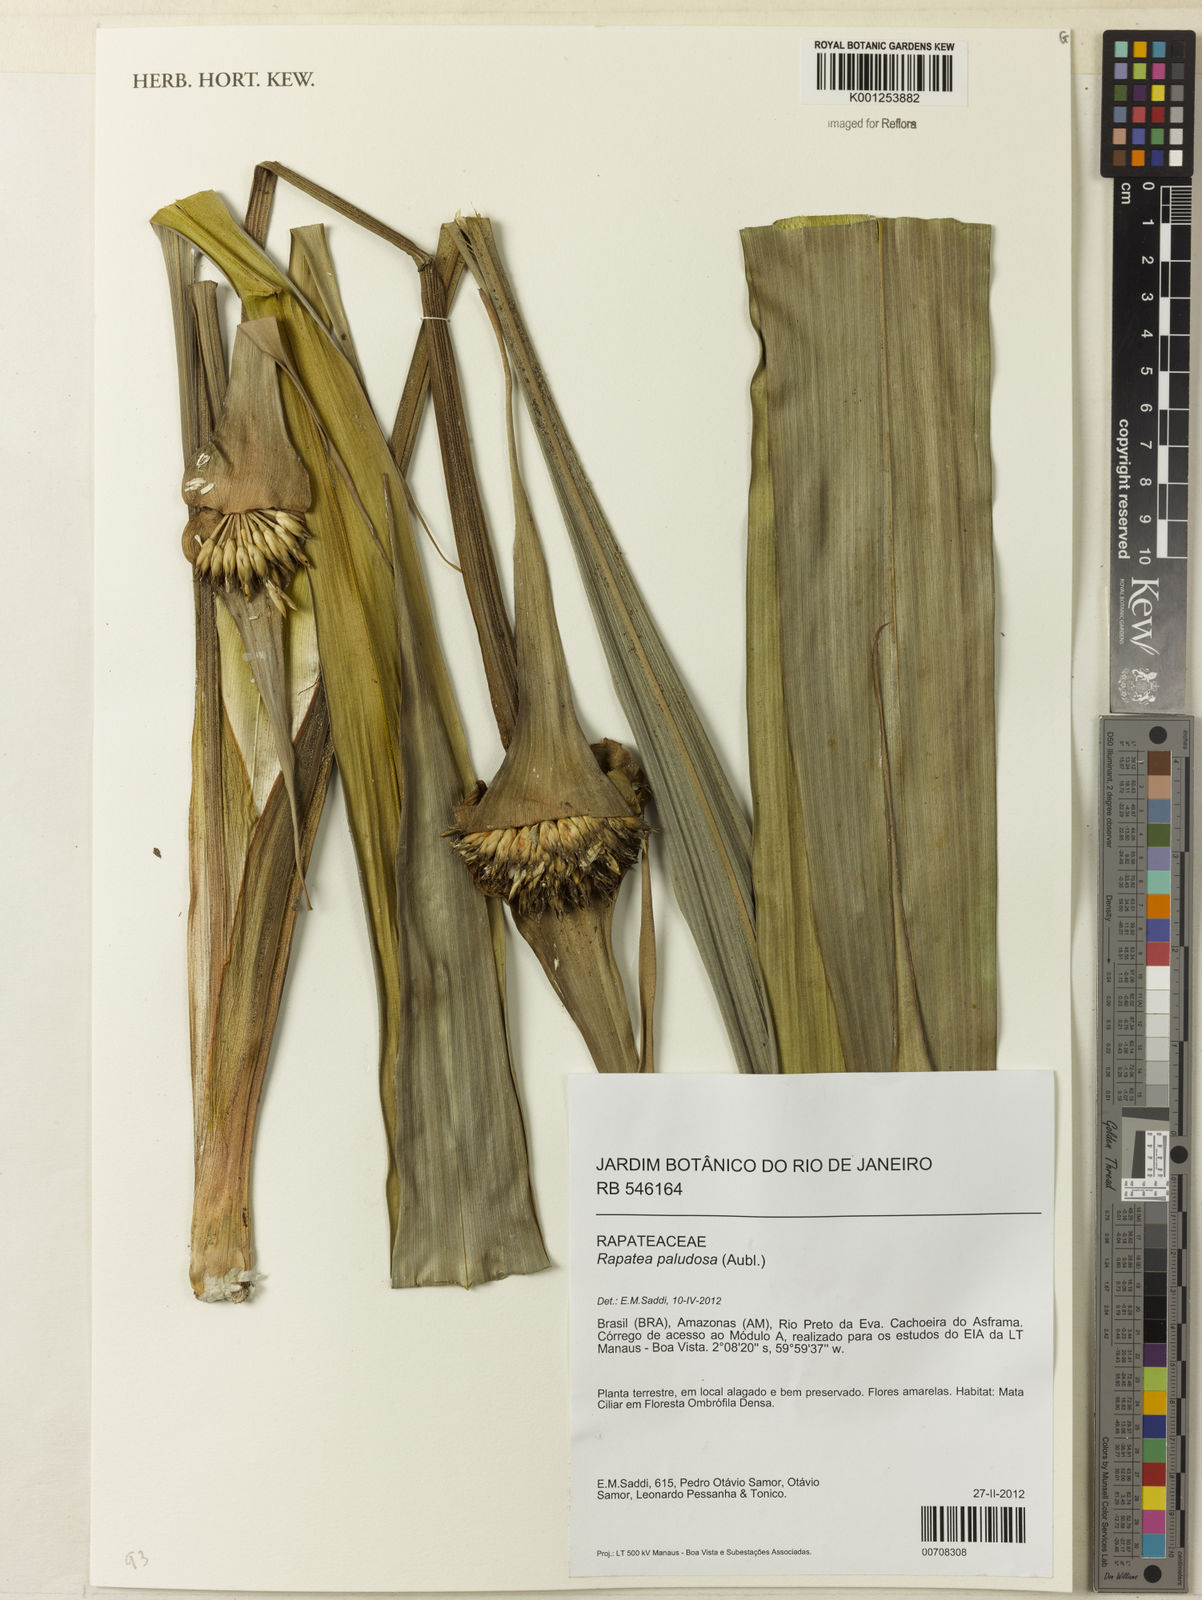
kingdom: Plantae
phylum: Tracheophyta
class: Liliopsida
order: Poales
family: Rapateaceae
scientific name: Rapateaceae
